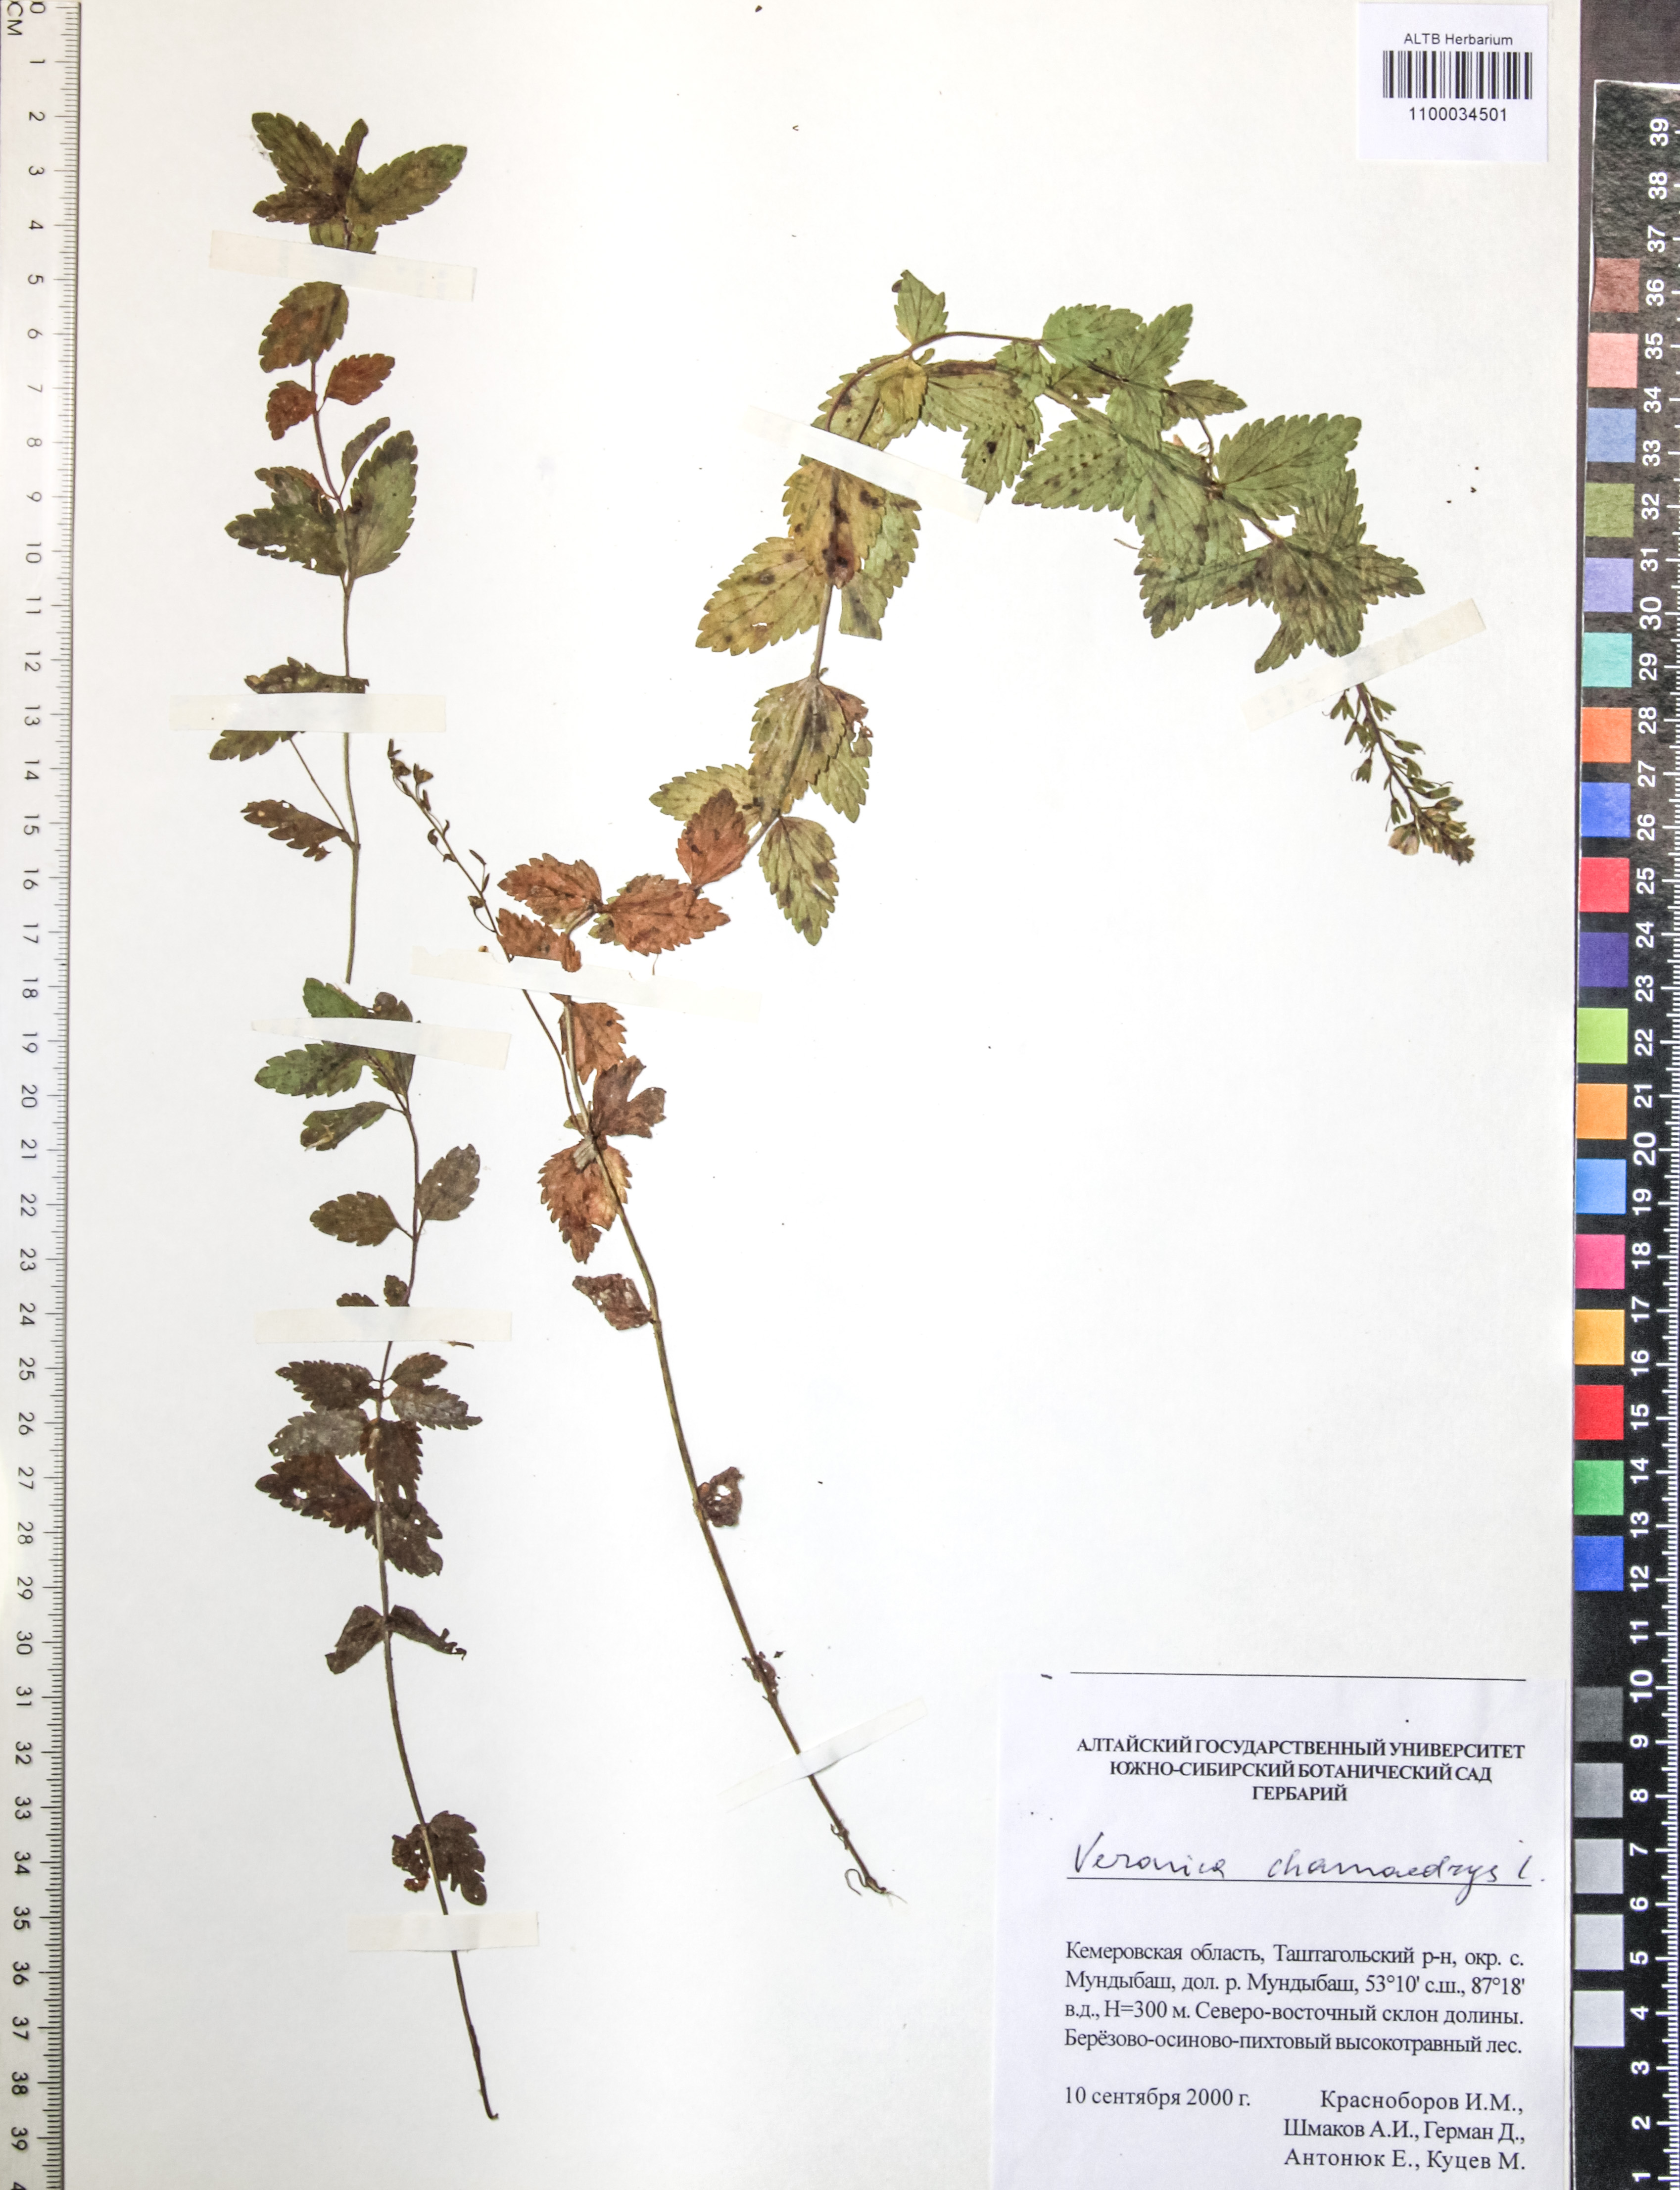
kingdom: Plantae
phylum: Tracheophyta
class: Magnoliopsida
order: Lamiales
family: Plantaginaceae
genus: Veronica
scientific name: Veronica chamaedrys
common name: Germander speedwell
